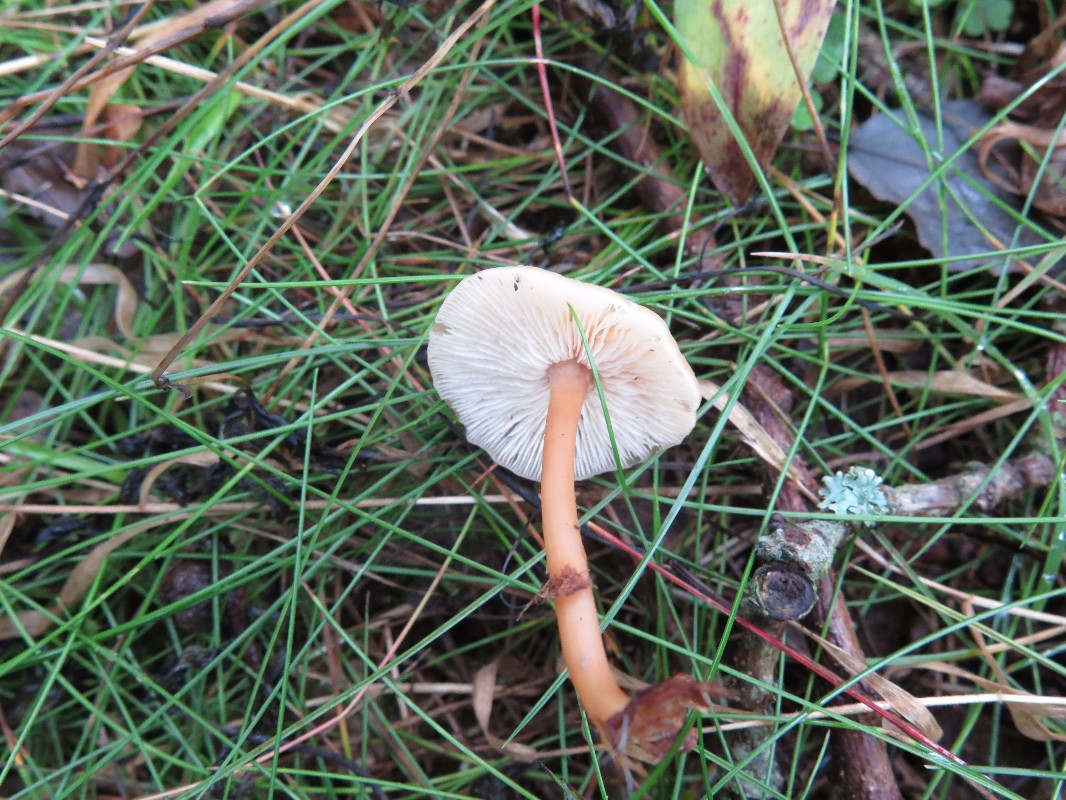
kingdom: Fungi
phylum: Basidiomycota
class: Agaricomycetes
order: Agaricales
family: Omphalotaceae
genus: Gymnopus
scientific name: Gymnopus dryophilus
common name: løv-fladhat
